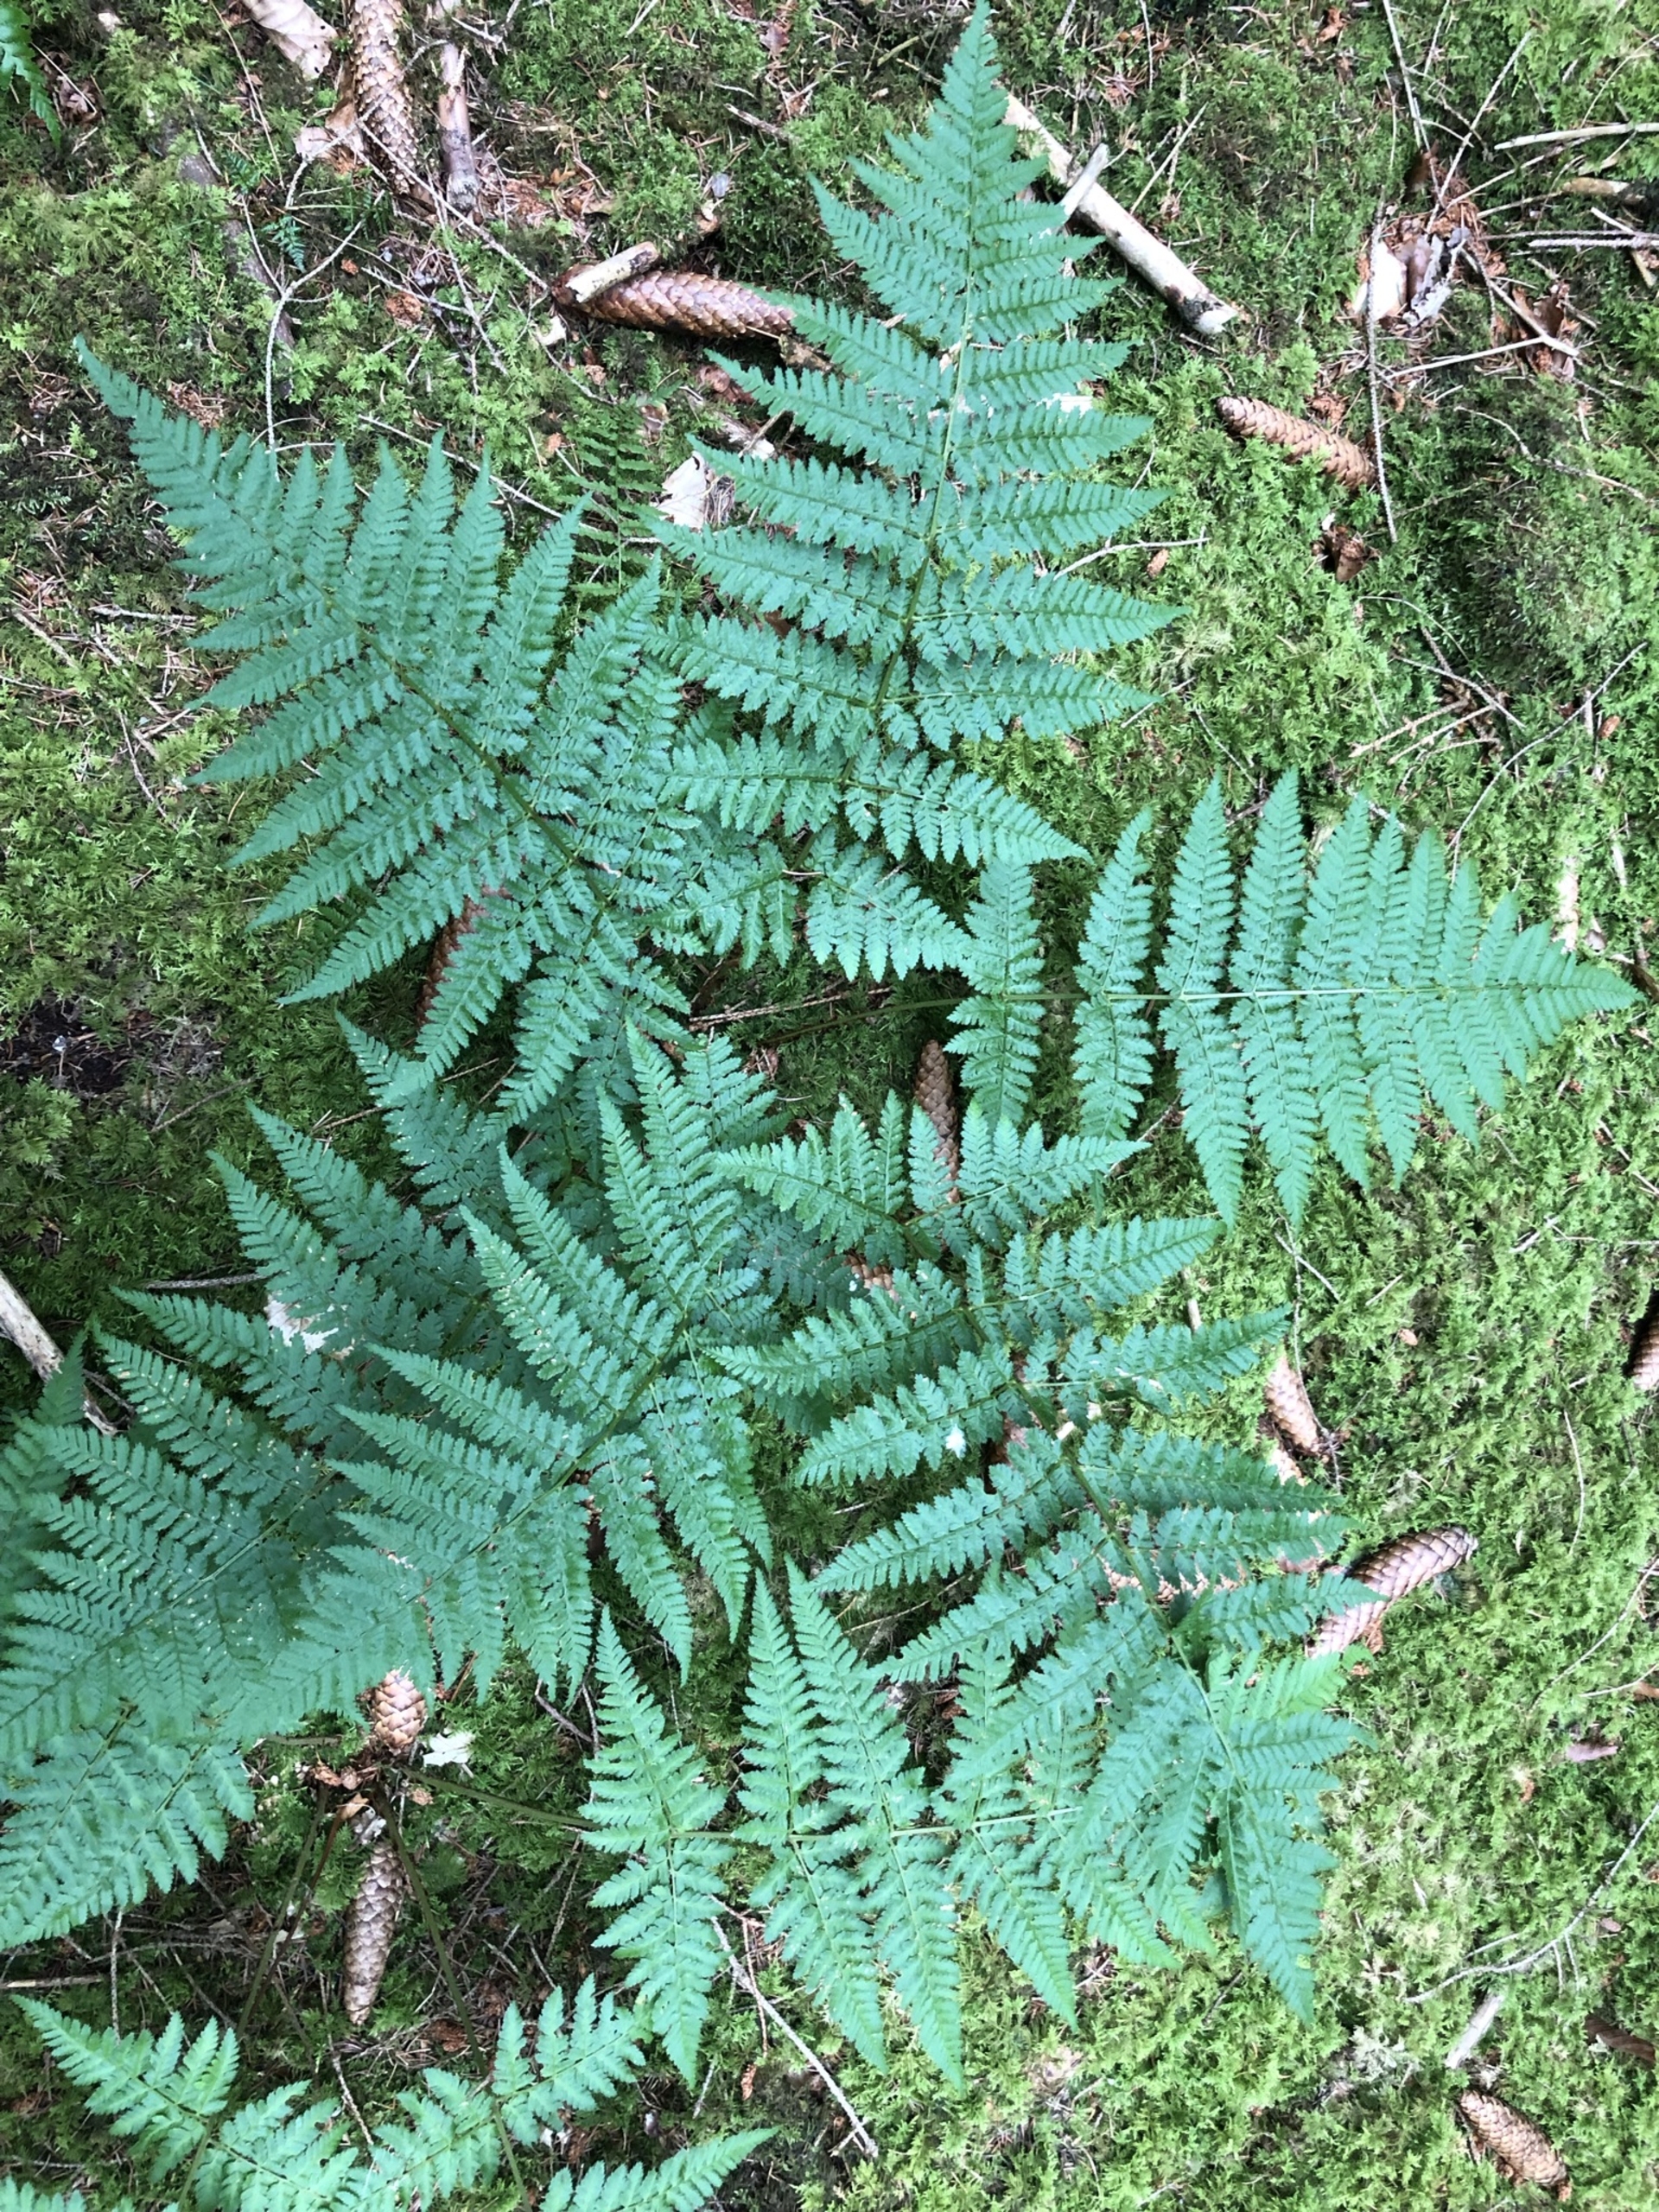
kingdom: Plantae
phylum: Tracheophyta
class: Polypodiopsida
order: Polypodiales
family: Dryopteridaceae
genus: Dryopteris
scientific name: Dryopteris carthusiana
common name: Smalbladet mangeløv
